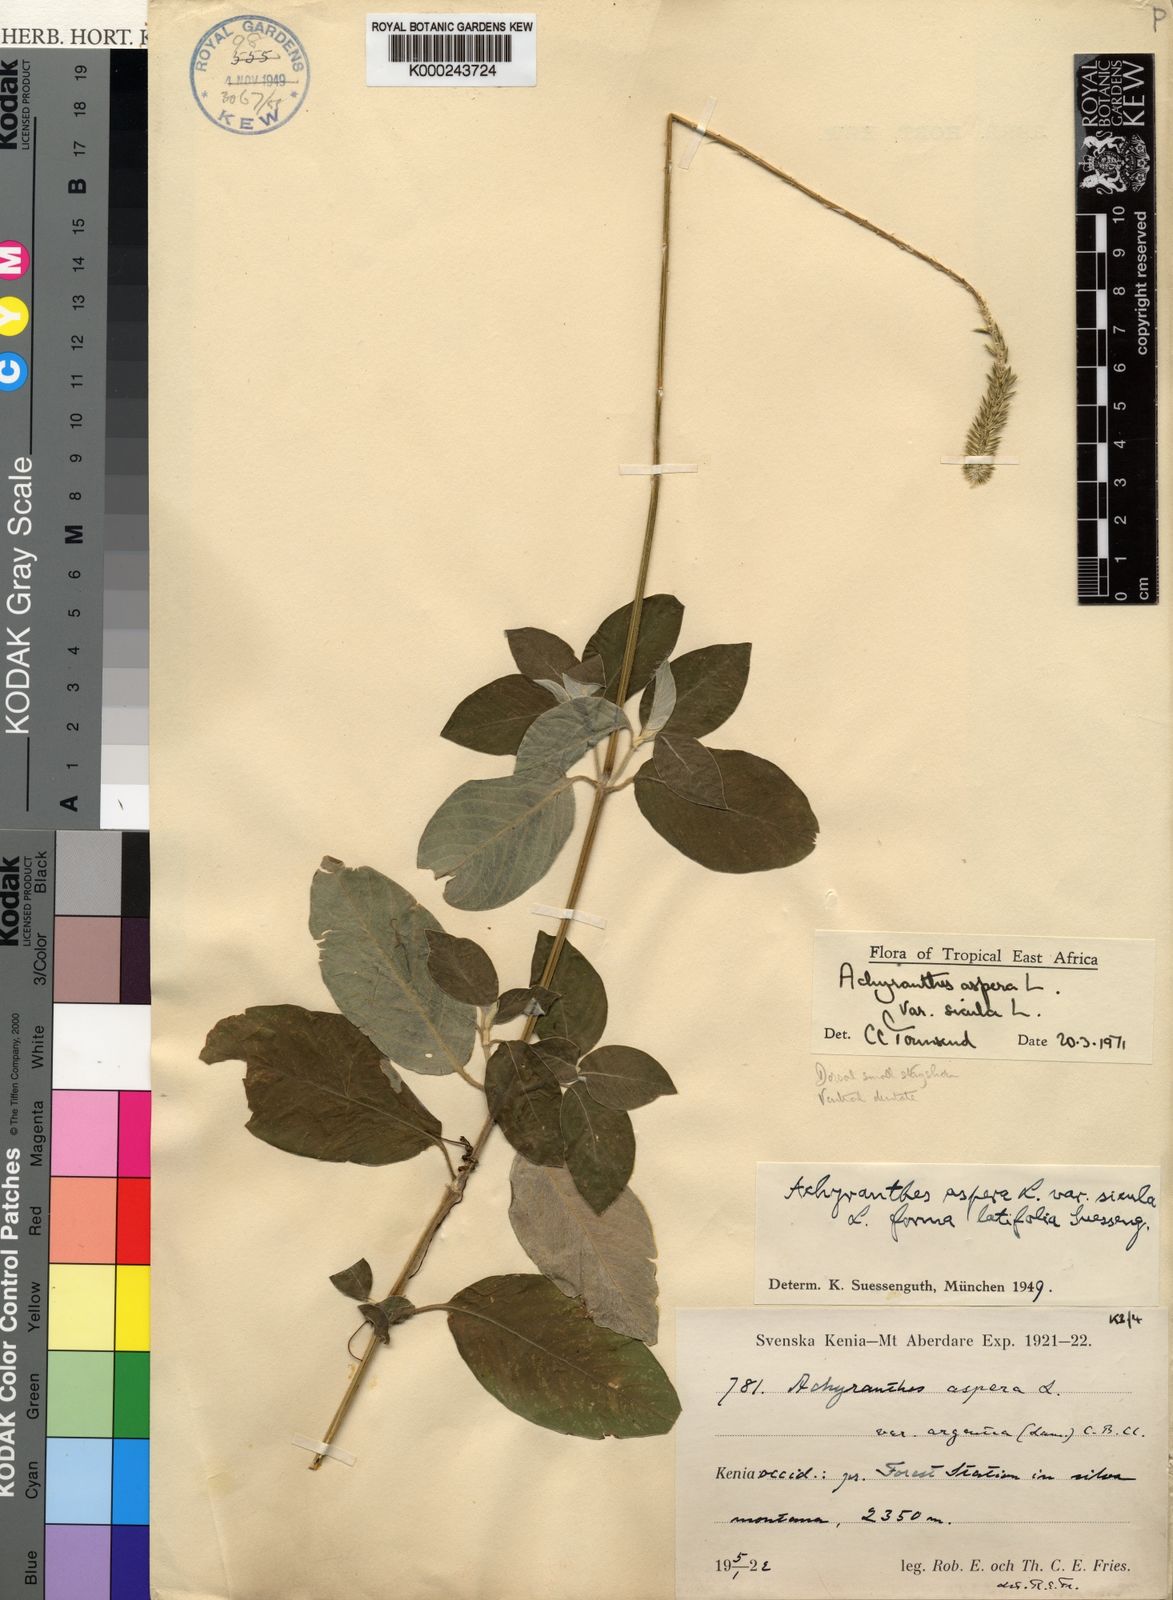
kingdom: Plantae
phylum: Tracheophyta
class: Magnoliopsida
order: Caryophyllales
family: Amaranthaceae
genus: Achyranthes
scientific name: Achyranthes sicula
